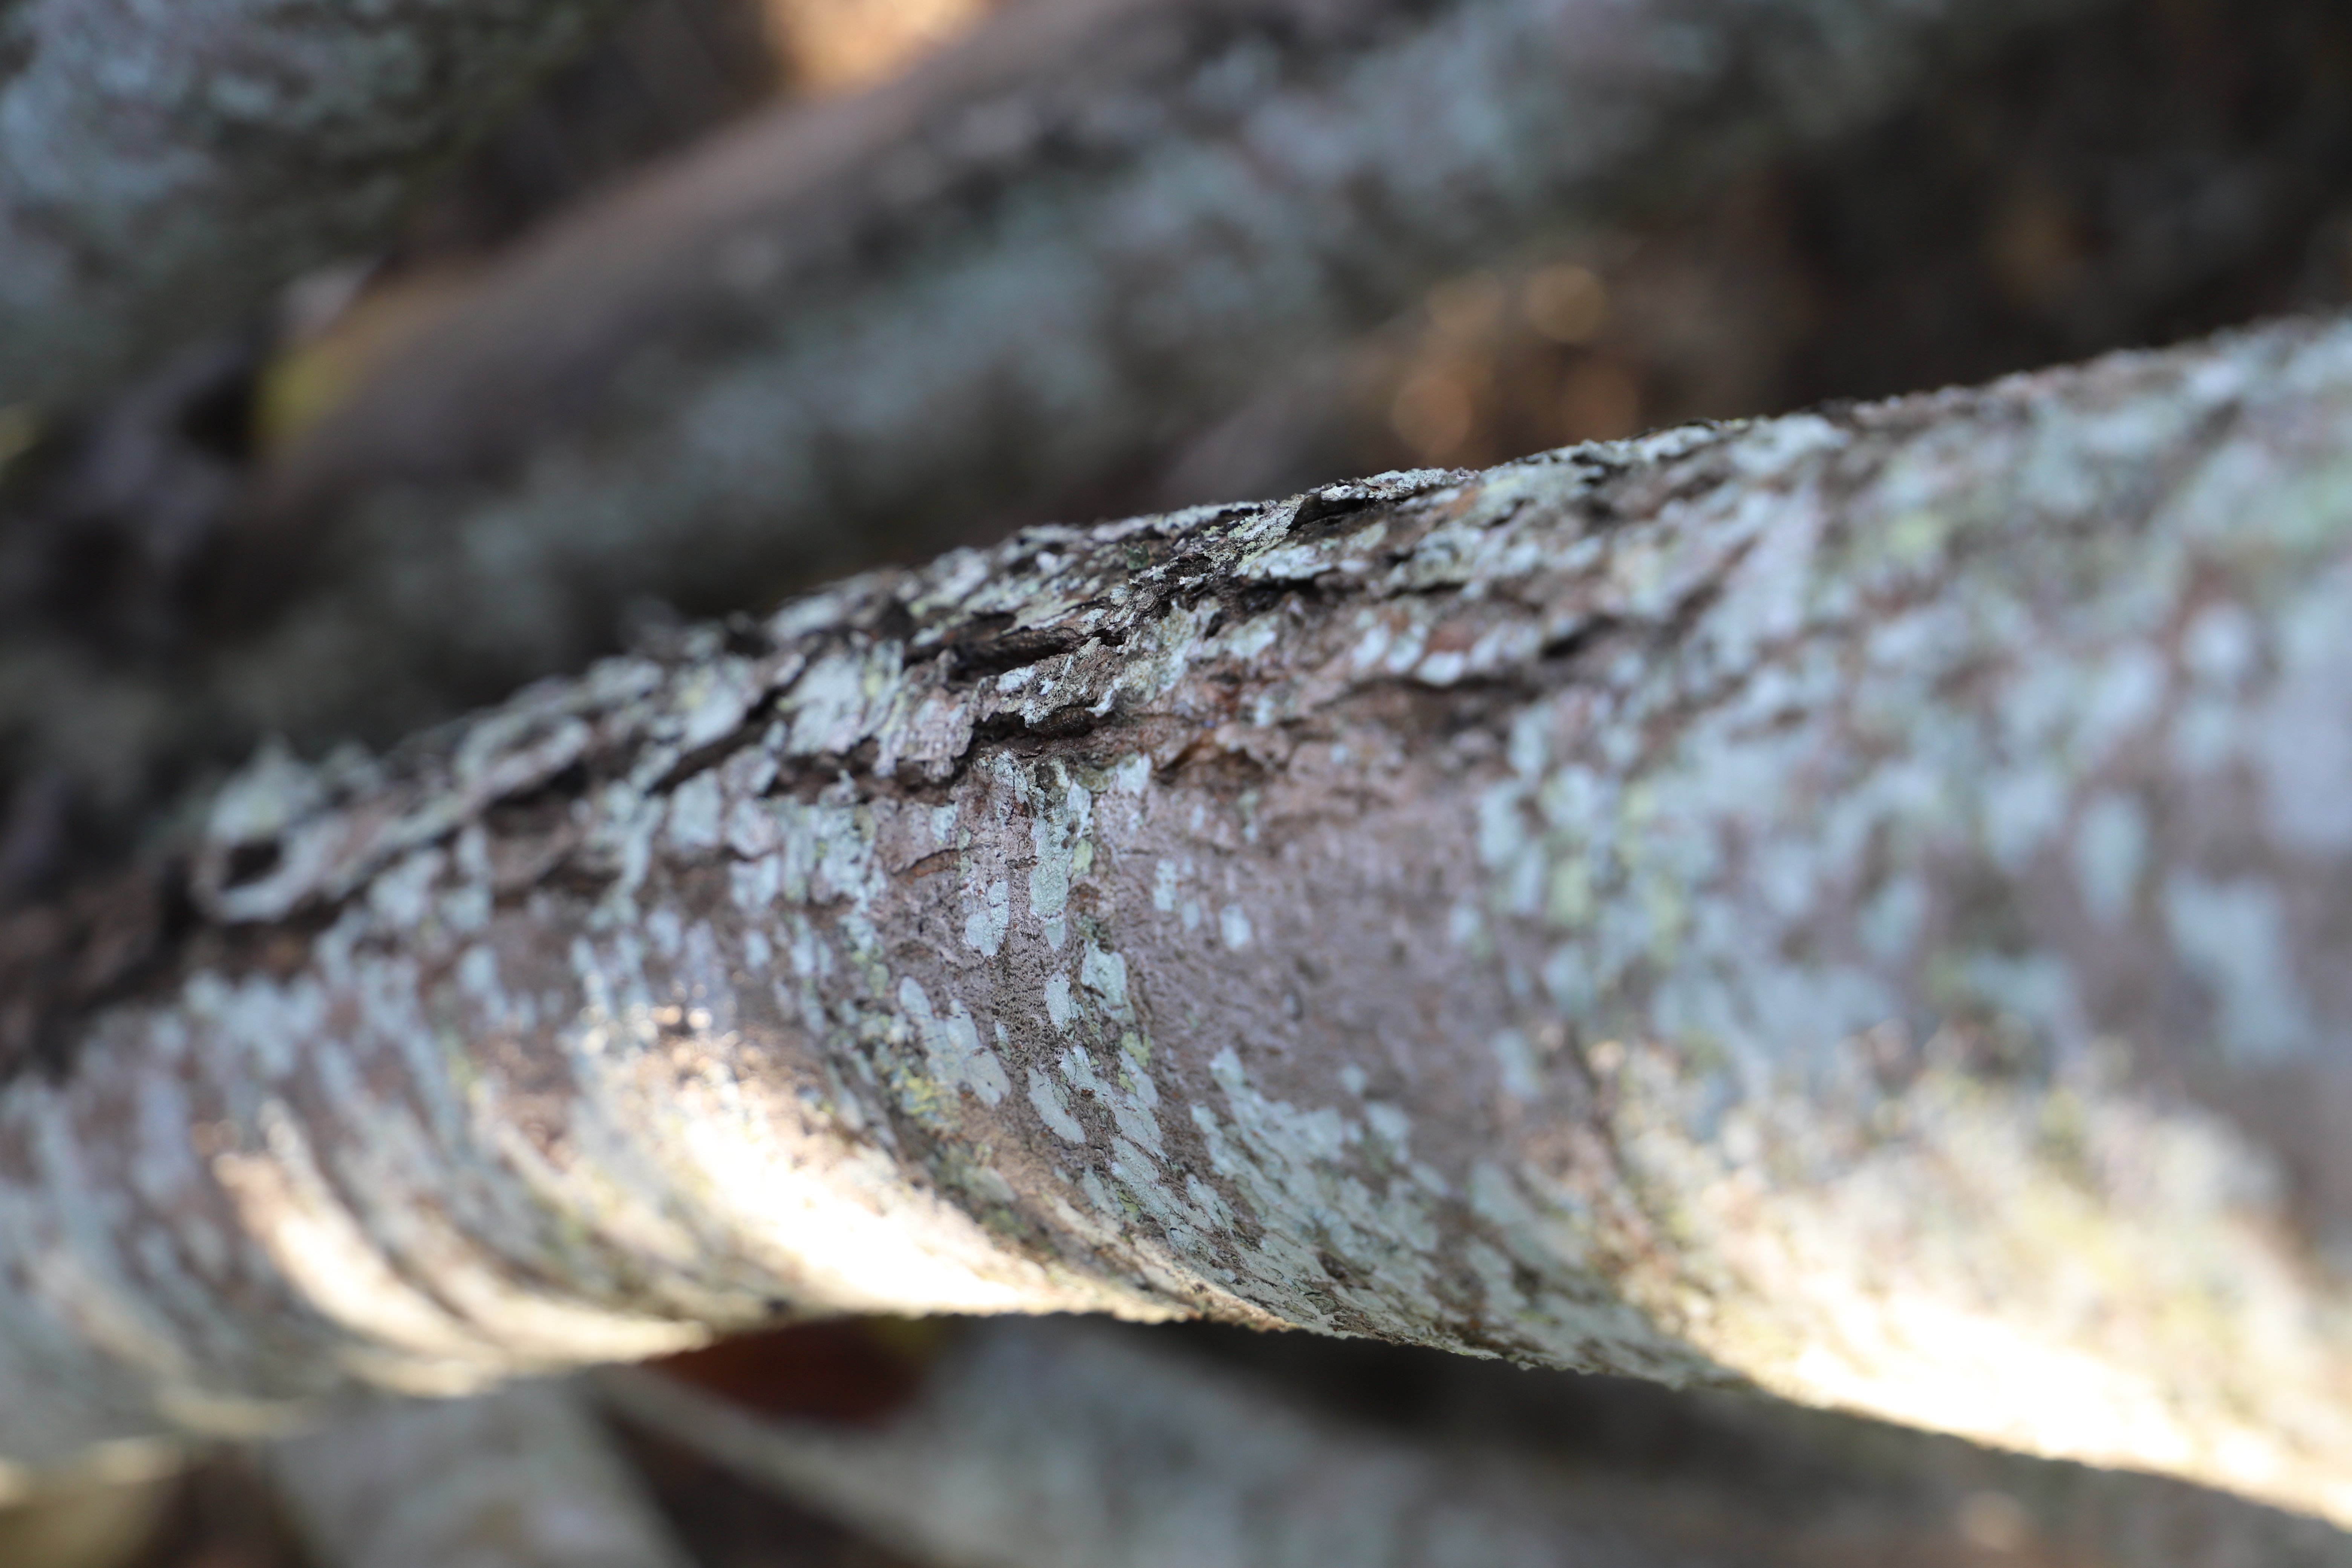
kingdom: Plantae
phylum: Tracheophyta
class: Magnoliopsida
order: Apiales
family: Araliaceae
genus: Polyscias
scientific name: Polyscias maraisiana
